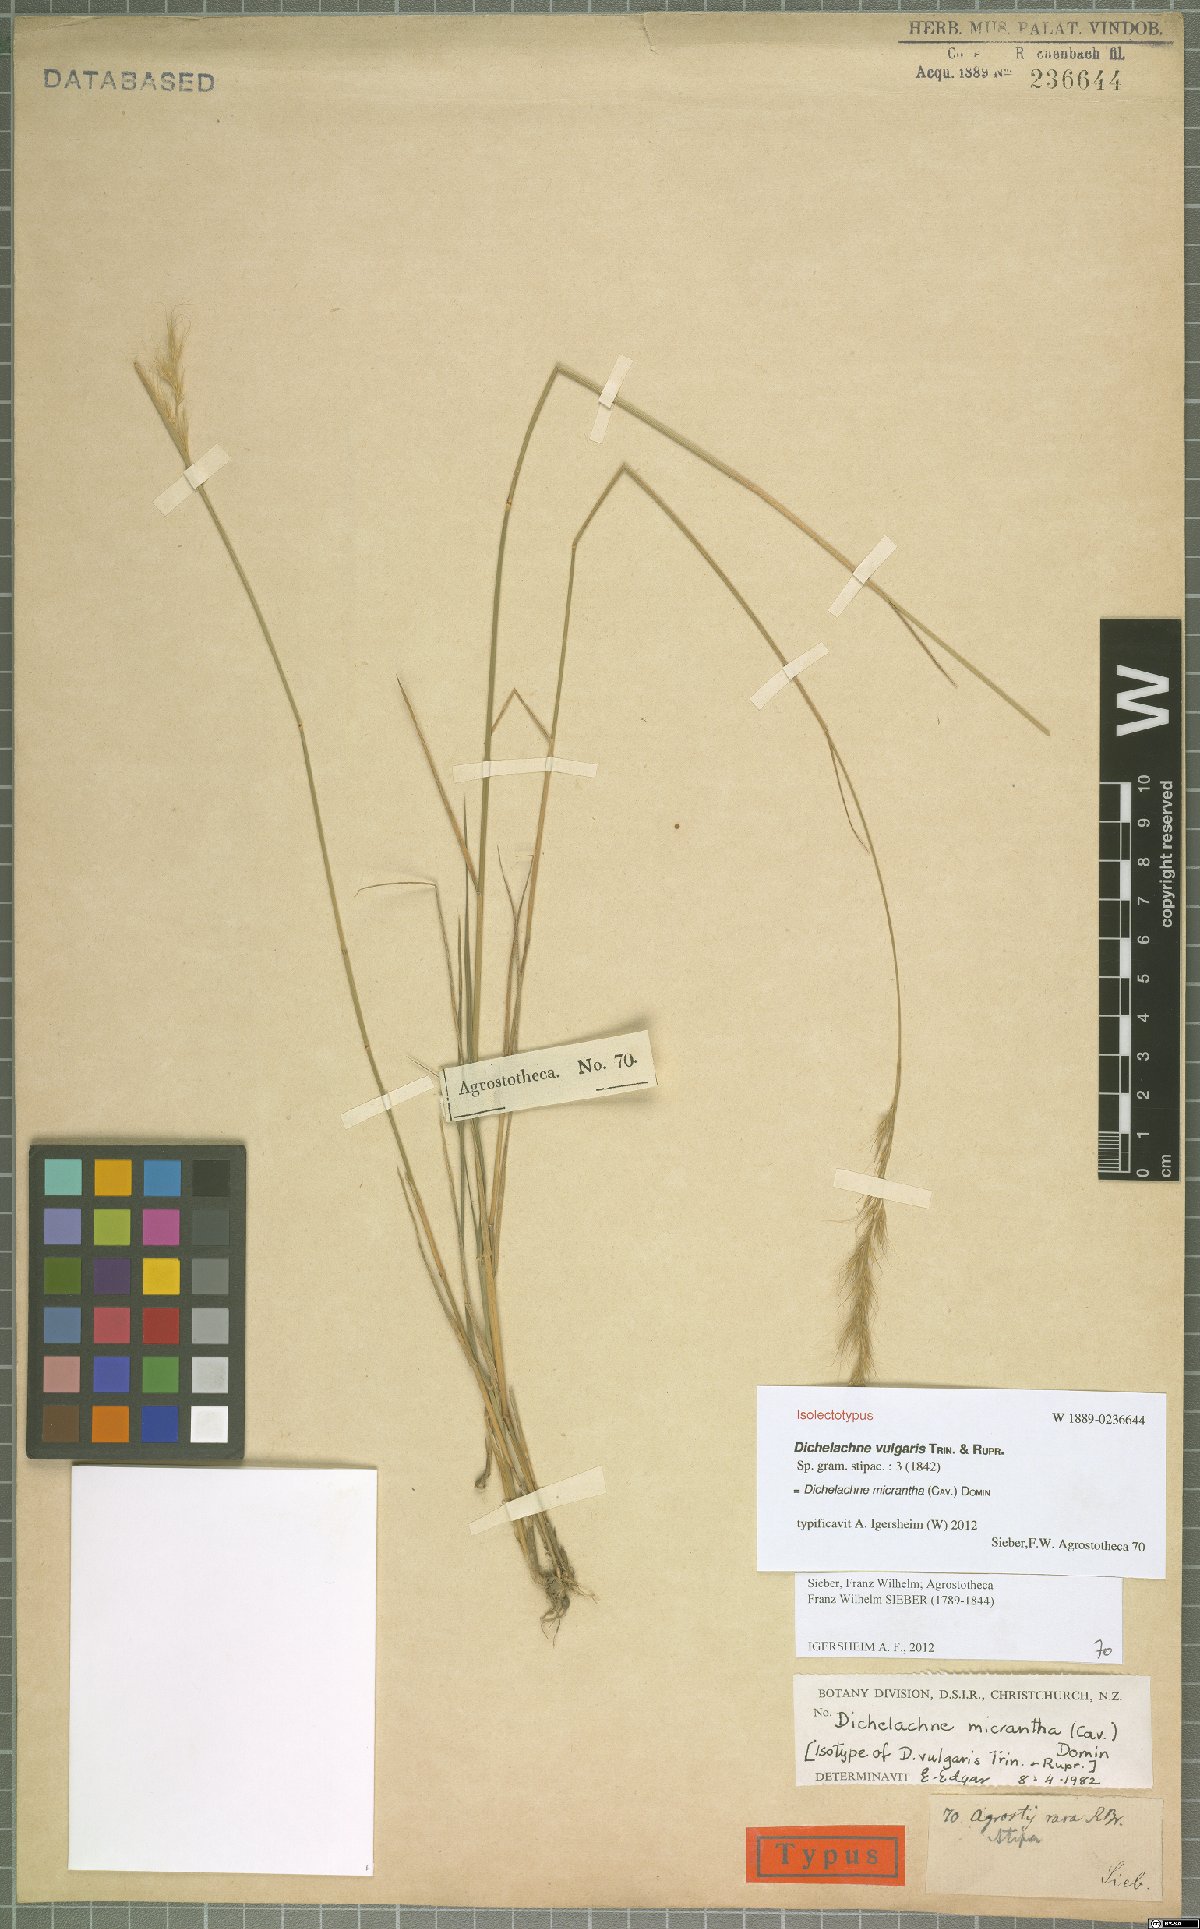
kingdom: Plantae
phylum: Tracheophyta
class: Liliopsida
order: Poales
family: Poaceae
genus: Dichelachne
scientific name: Dichelachne micrantha
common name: Plumegrass
